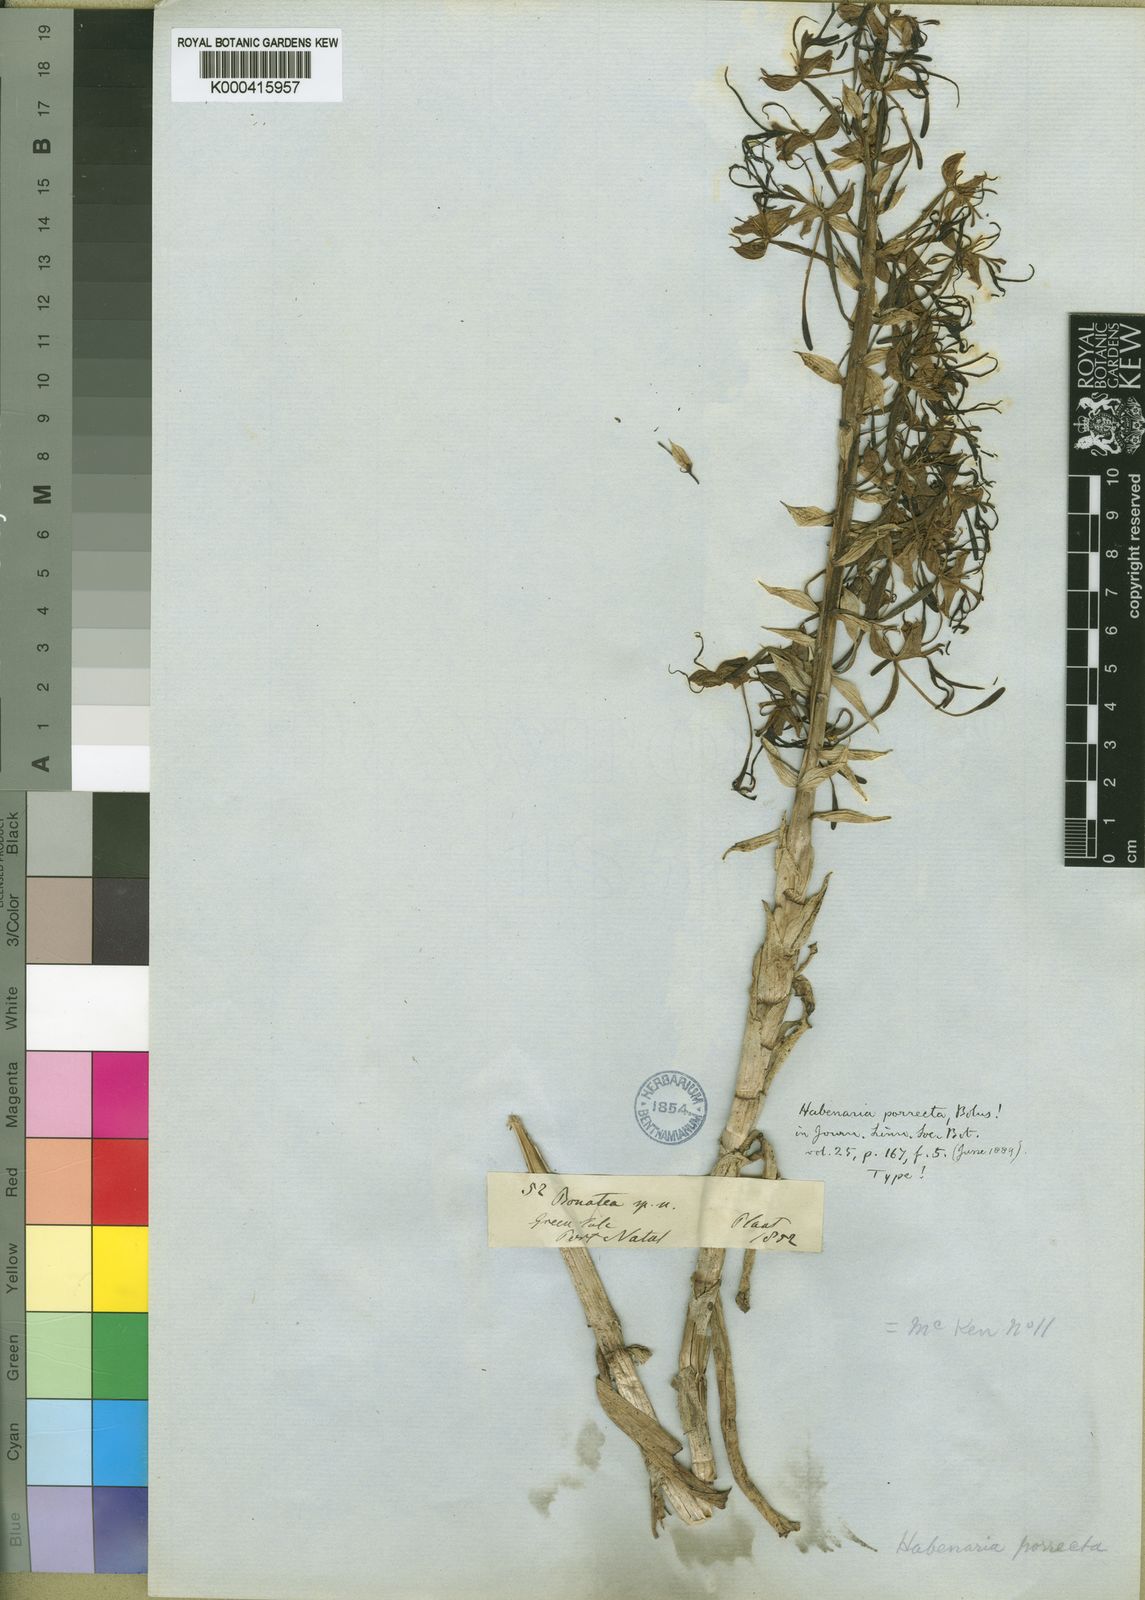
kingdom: Plantae
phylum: Tracheophyta
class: Liliopsida
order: Asparagales
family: Orchidaceae
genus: Bonatea
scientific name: Bonatea porrecta
